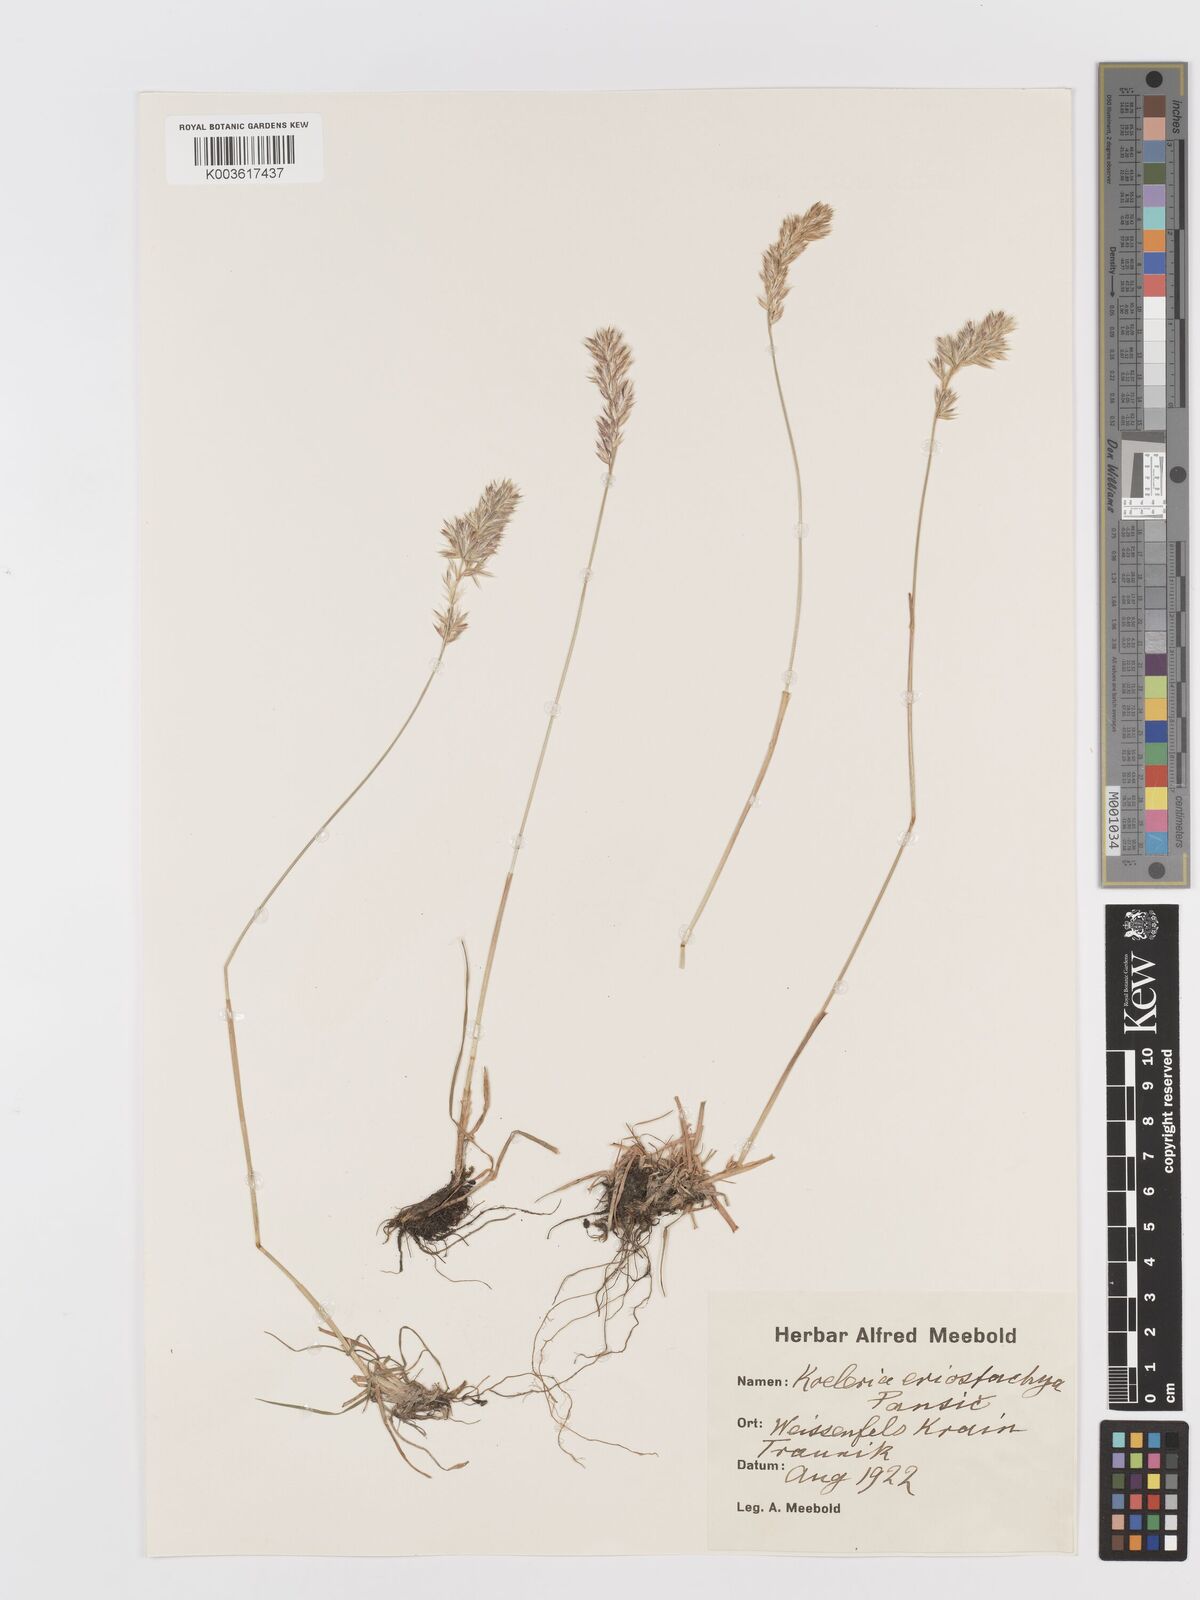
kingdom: Plantae
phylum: Tracheophyta
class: Liliopsida
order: Poales
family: Poaceae
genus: Koeleria
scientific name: Koeleria eriostachya
